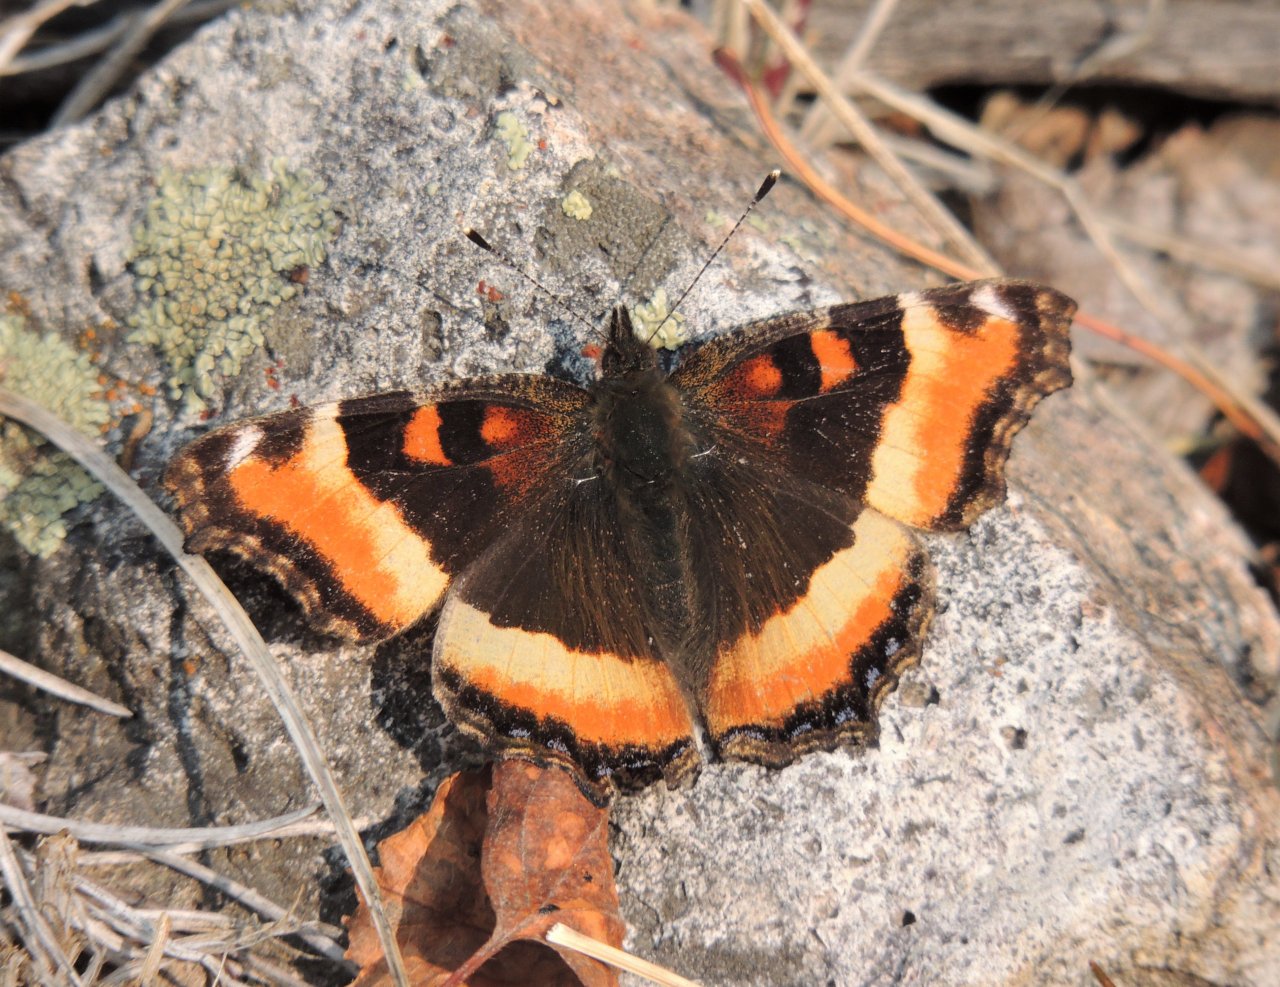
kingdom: Animalia
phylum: Arthropoda
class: Insecta
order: Lepidoptera
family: Nymphalidae
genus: Aglais
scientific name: Aglais milberti
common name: Milbert's Tortoiseshell
